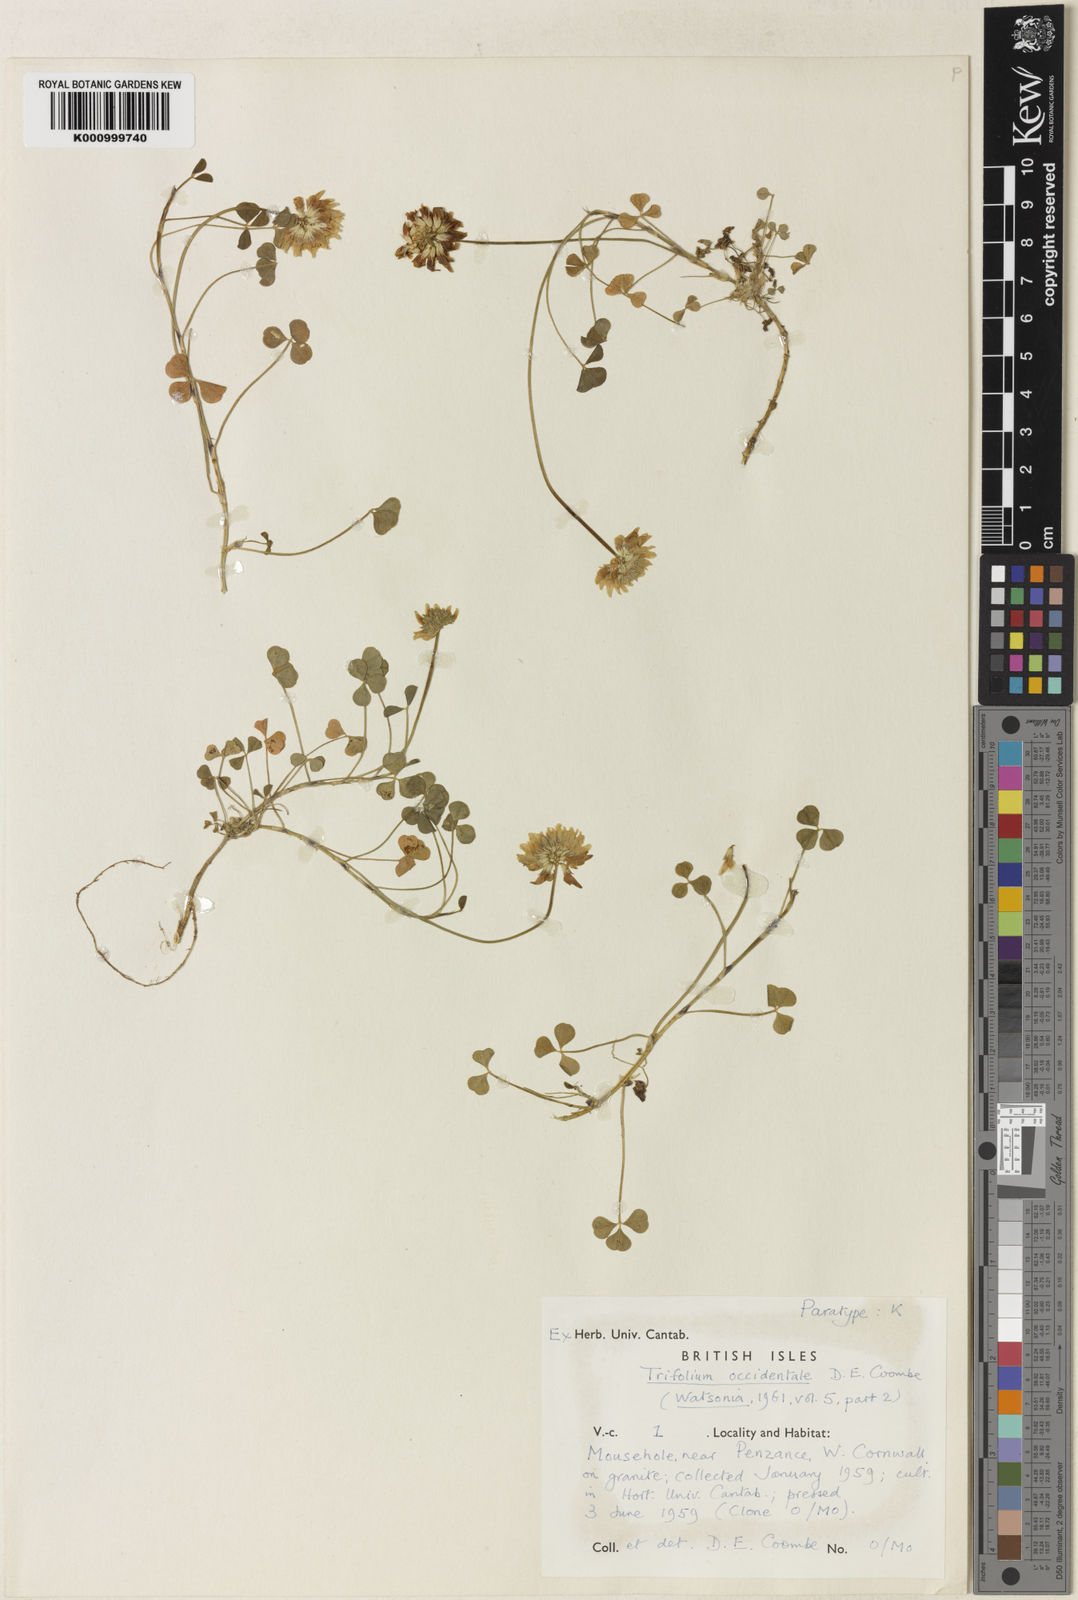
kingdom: Plantae
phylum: Tracheophyta
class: Magnoliopsida
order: Fabales
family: Fabaceae
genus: Trifolium
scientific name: Trifolium occidentale
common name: Western clover
